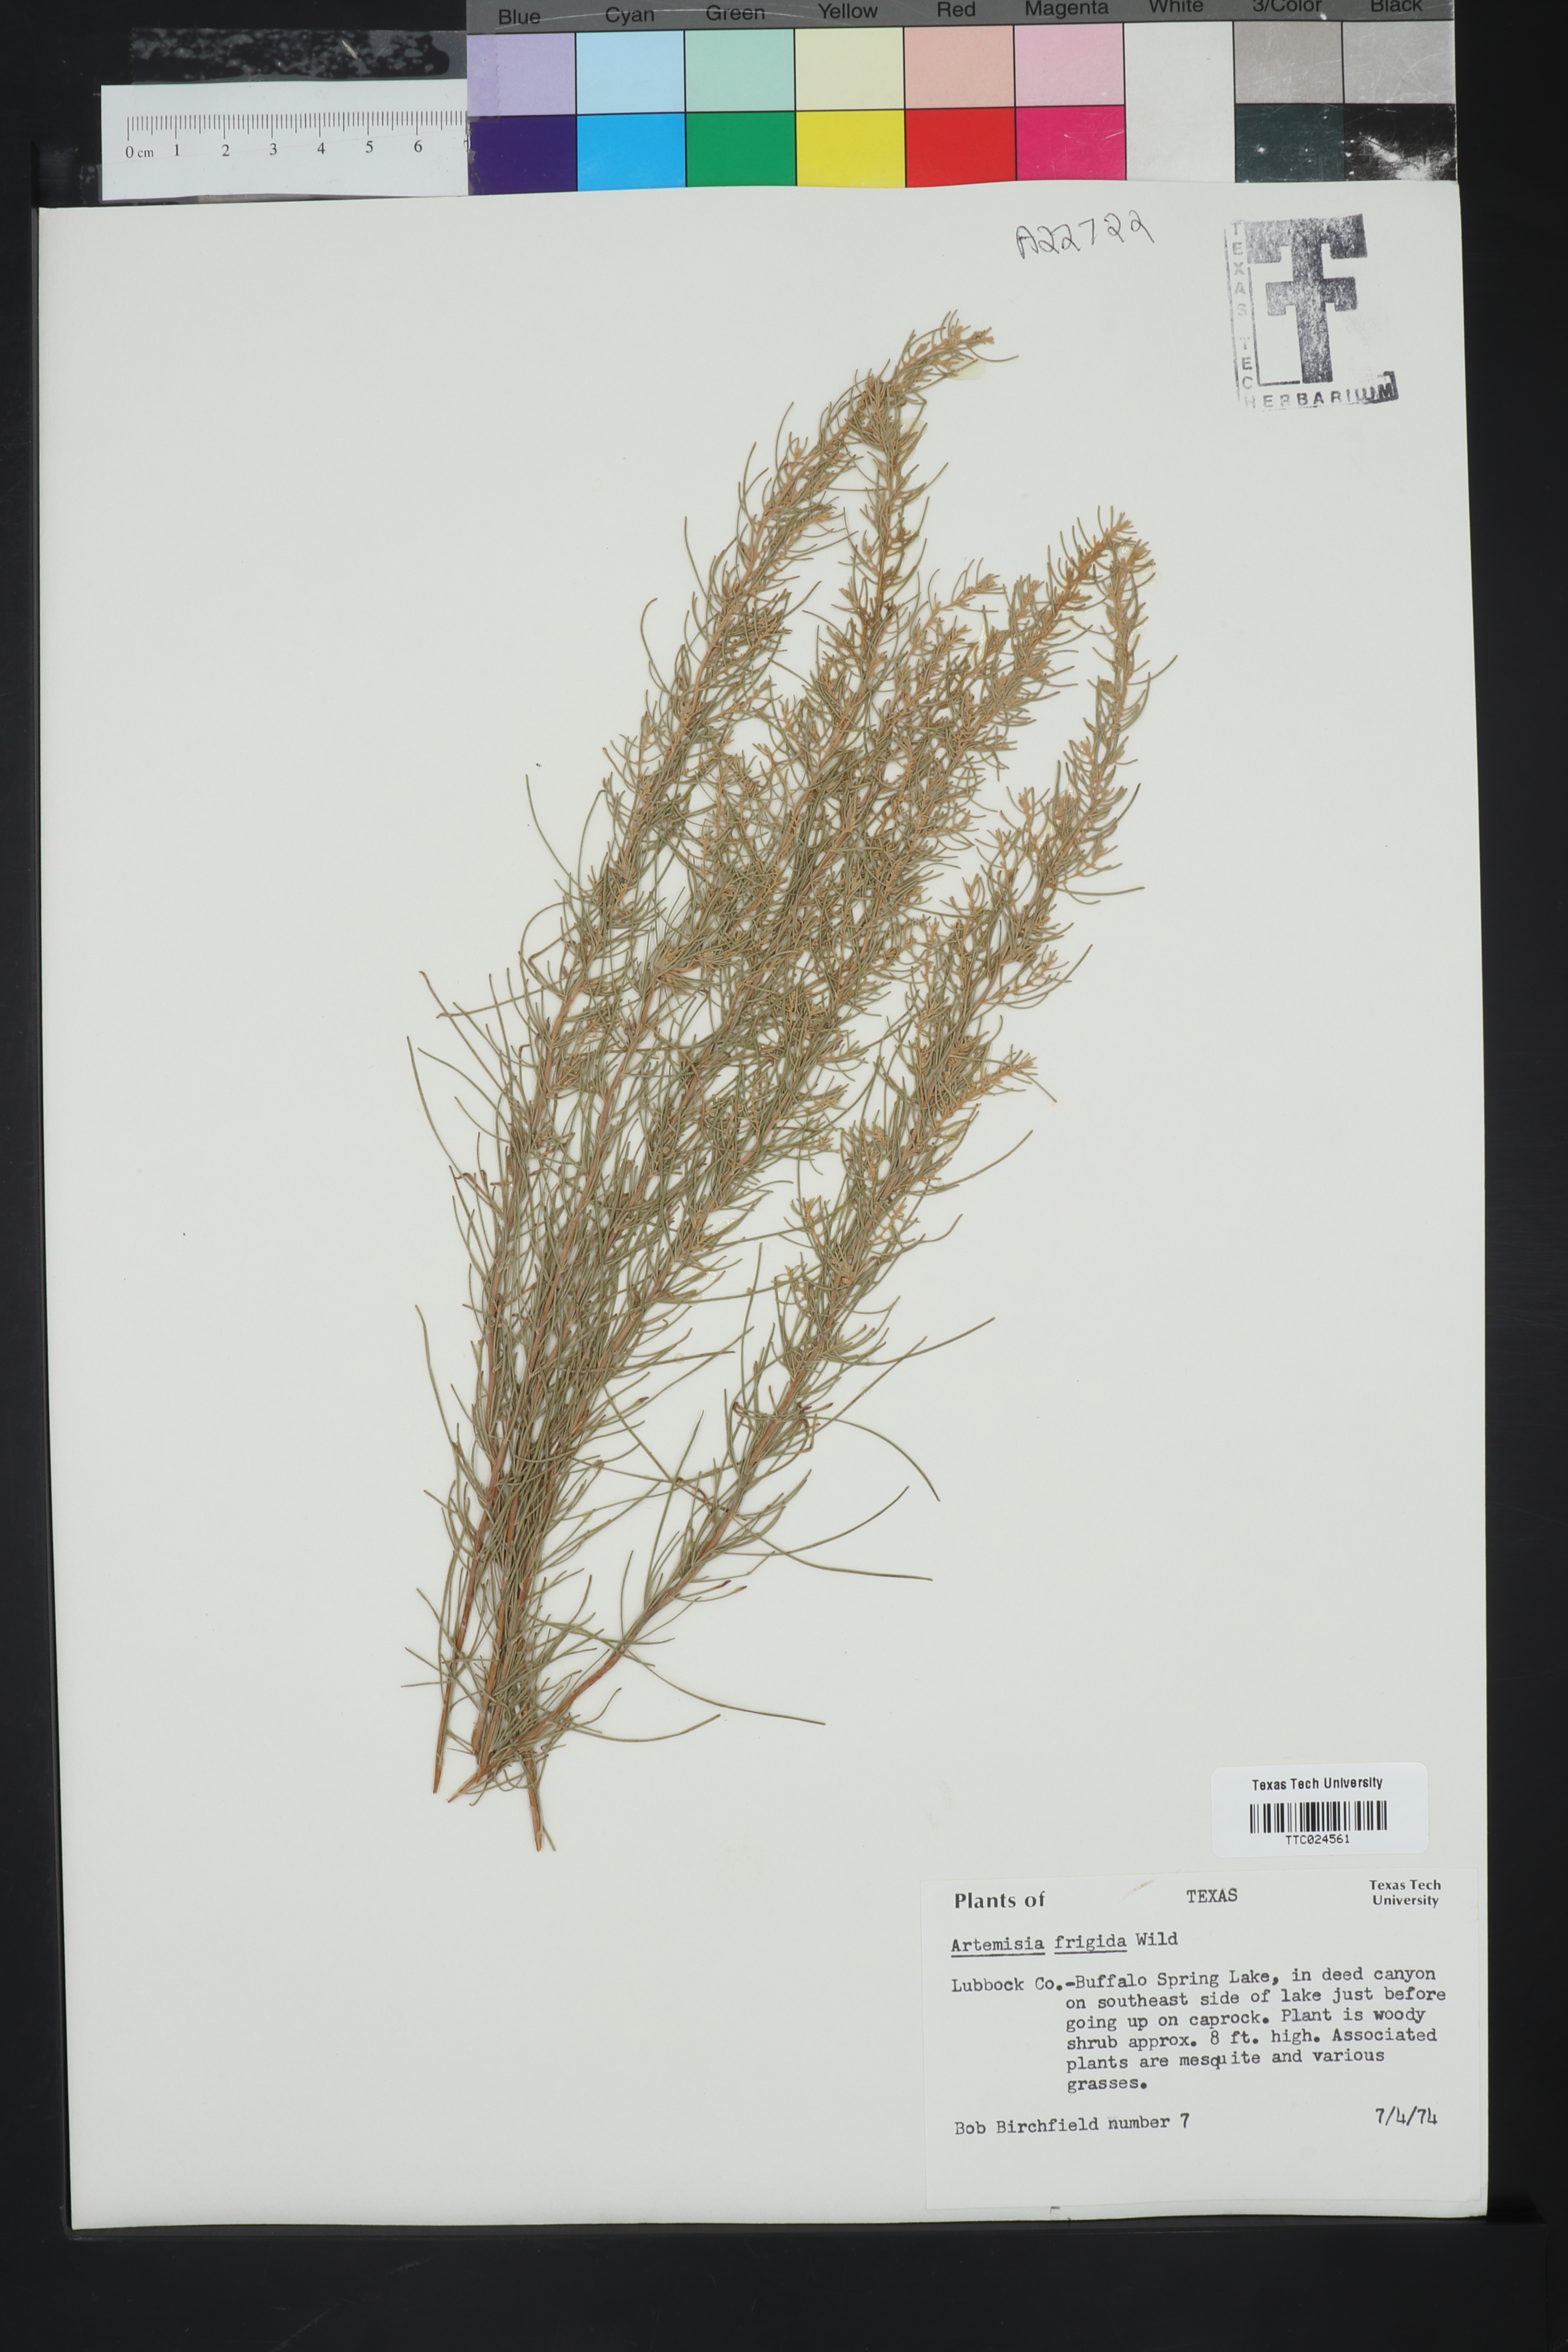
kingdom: Plantae
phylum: Tracheophyta
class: Magnoliopsida
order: Asterales
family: Asteraceae
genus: Artemisia
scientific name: Artemisia frigida
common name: Prairie sagewort
